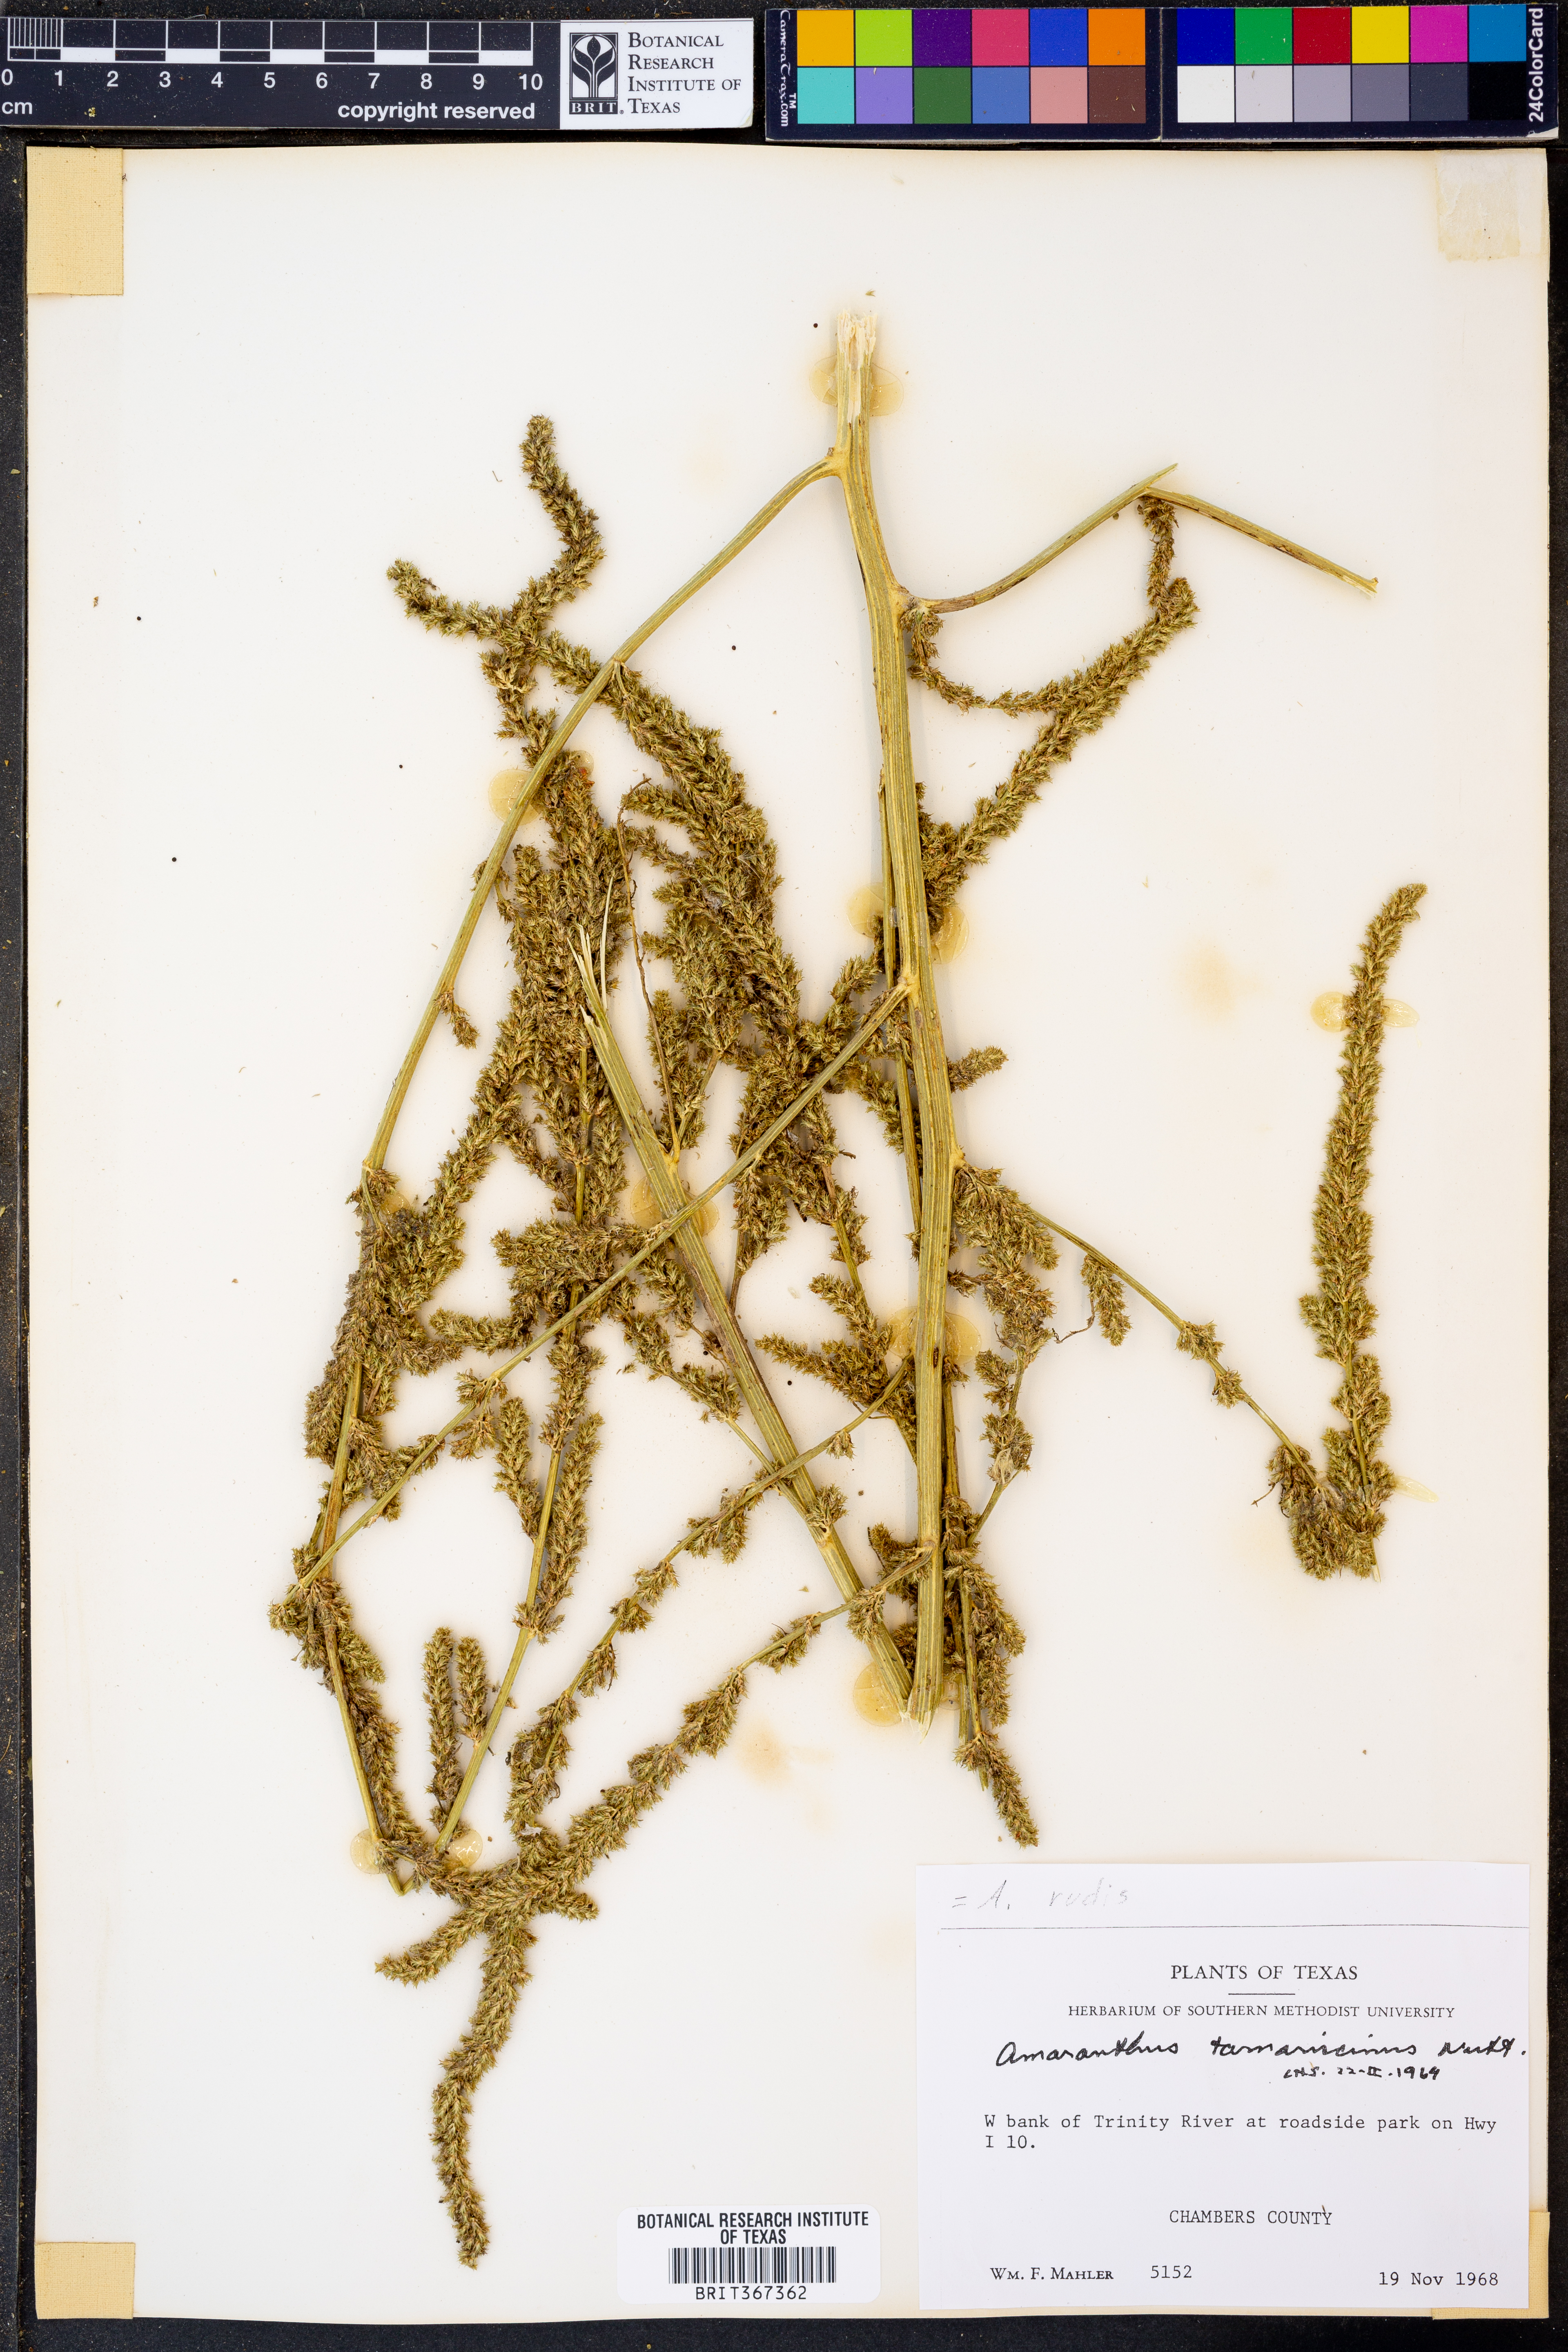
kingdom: Plantae
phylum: Tracheophyta
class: Magnoliopsida
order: Caryophyllales
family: Amaranthaceae
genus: Amaranthus
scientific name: Amaranthus tuberculatus
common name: Rough-fruit amaranth
